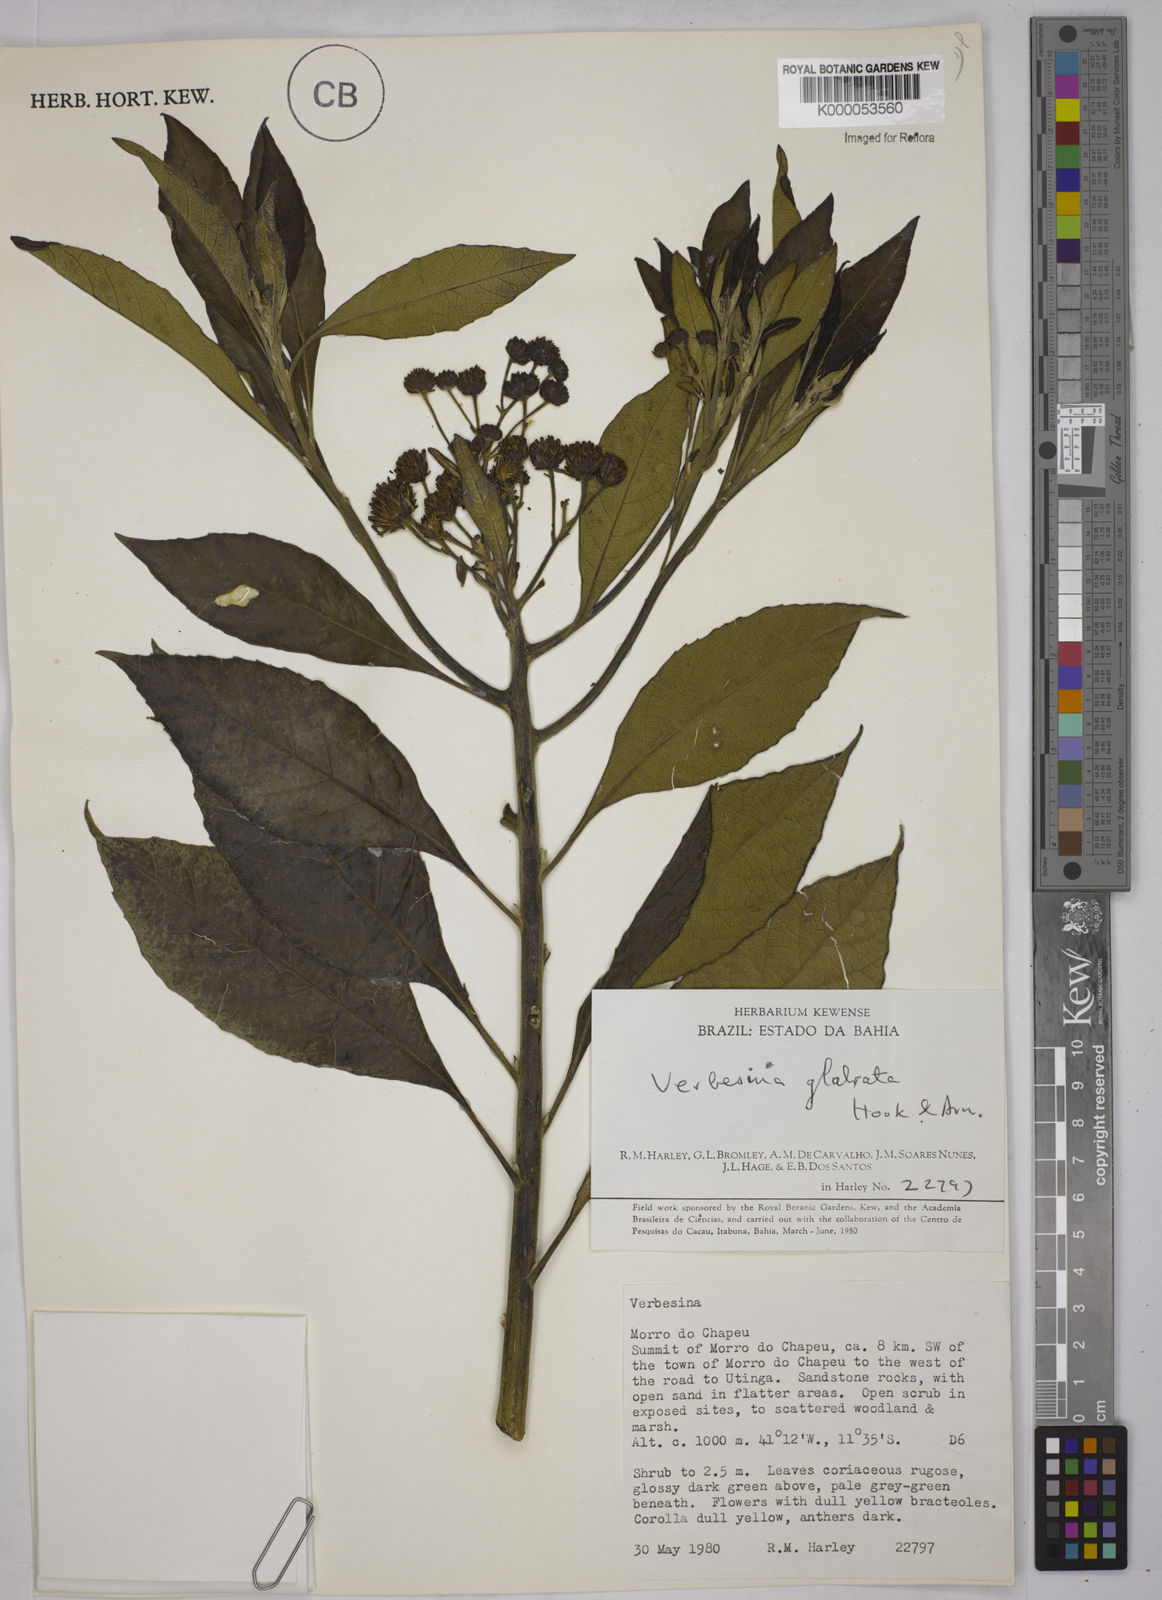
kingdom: Plantae
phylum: Tracheophyta
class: Magnoliopsida
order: Asterales
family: Asteraceae
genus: Verbesina
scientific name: Verbesina glabrata
